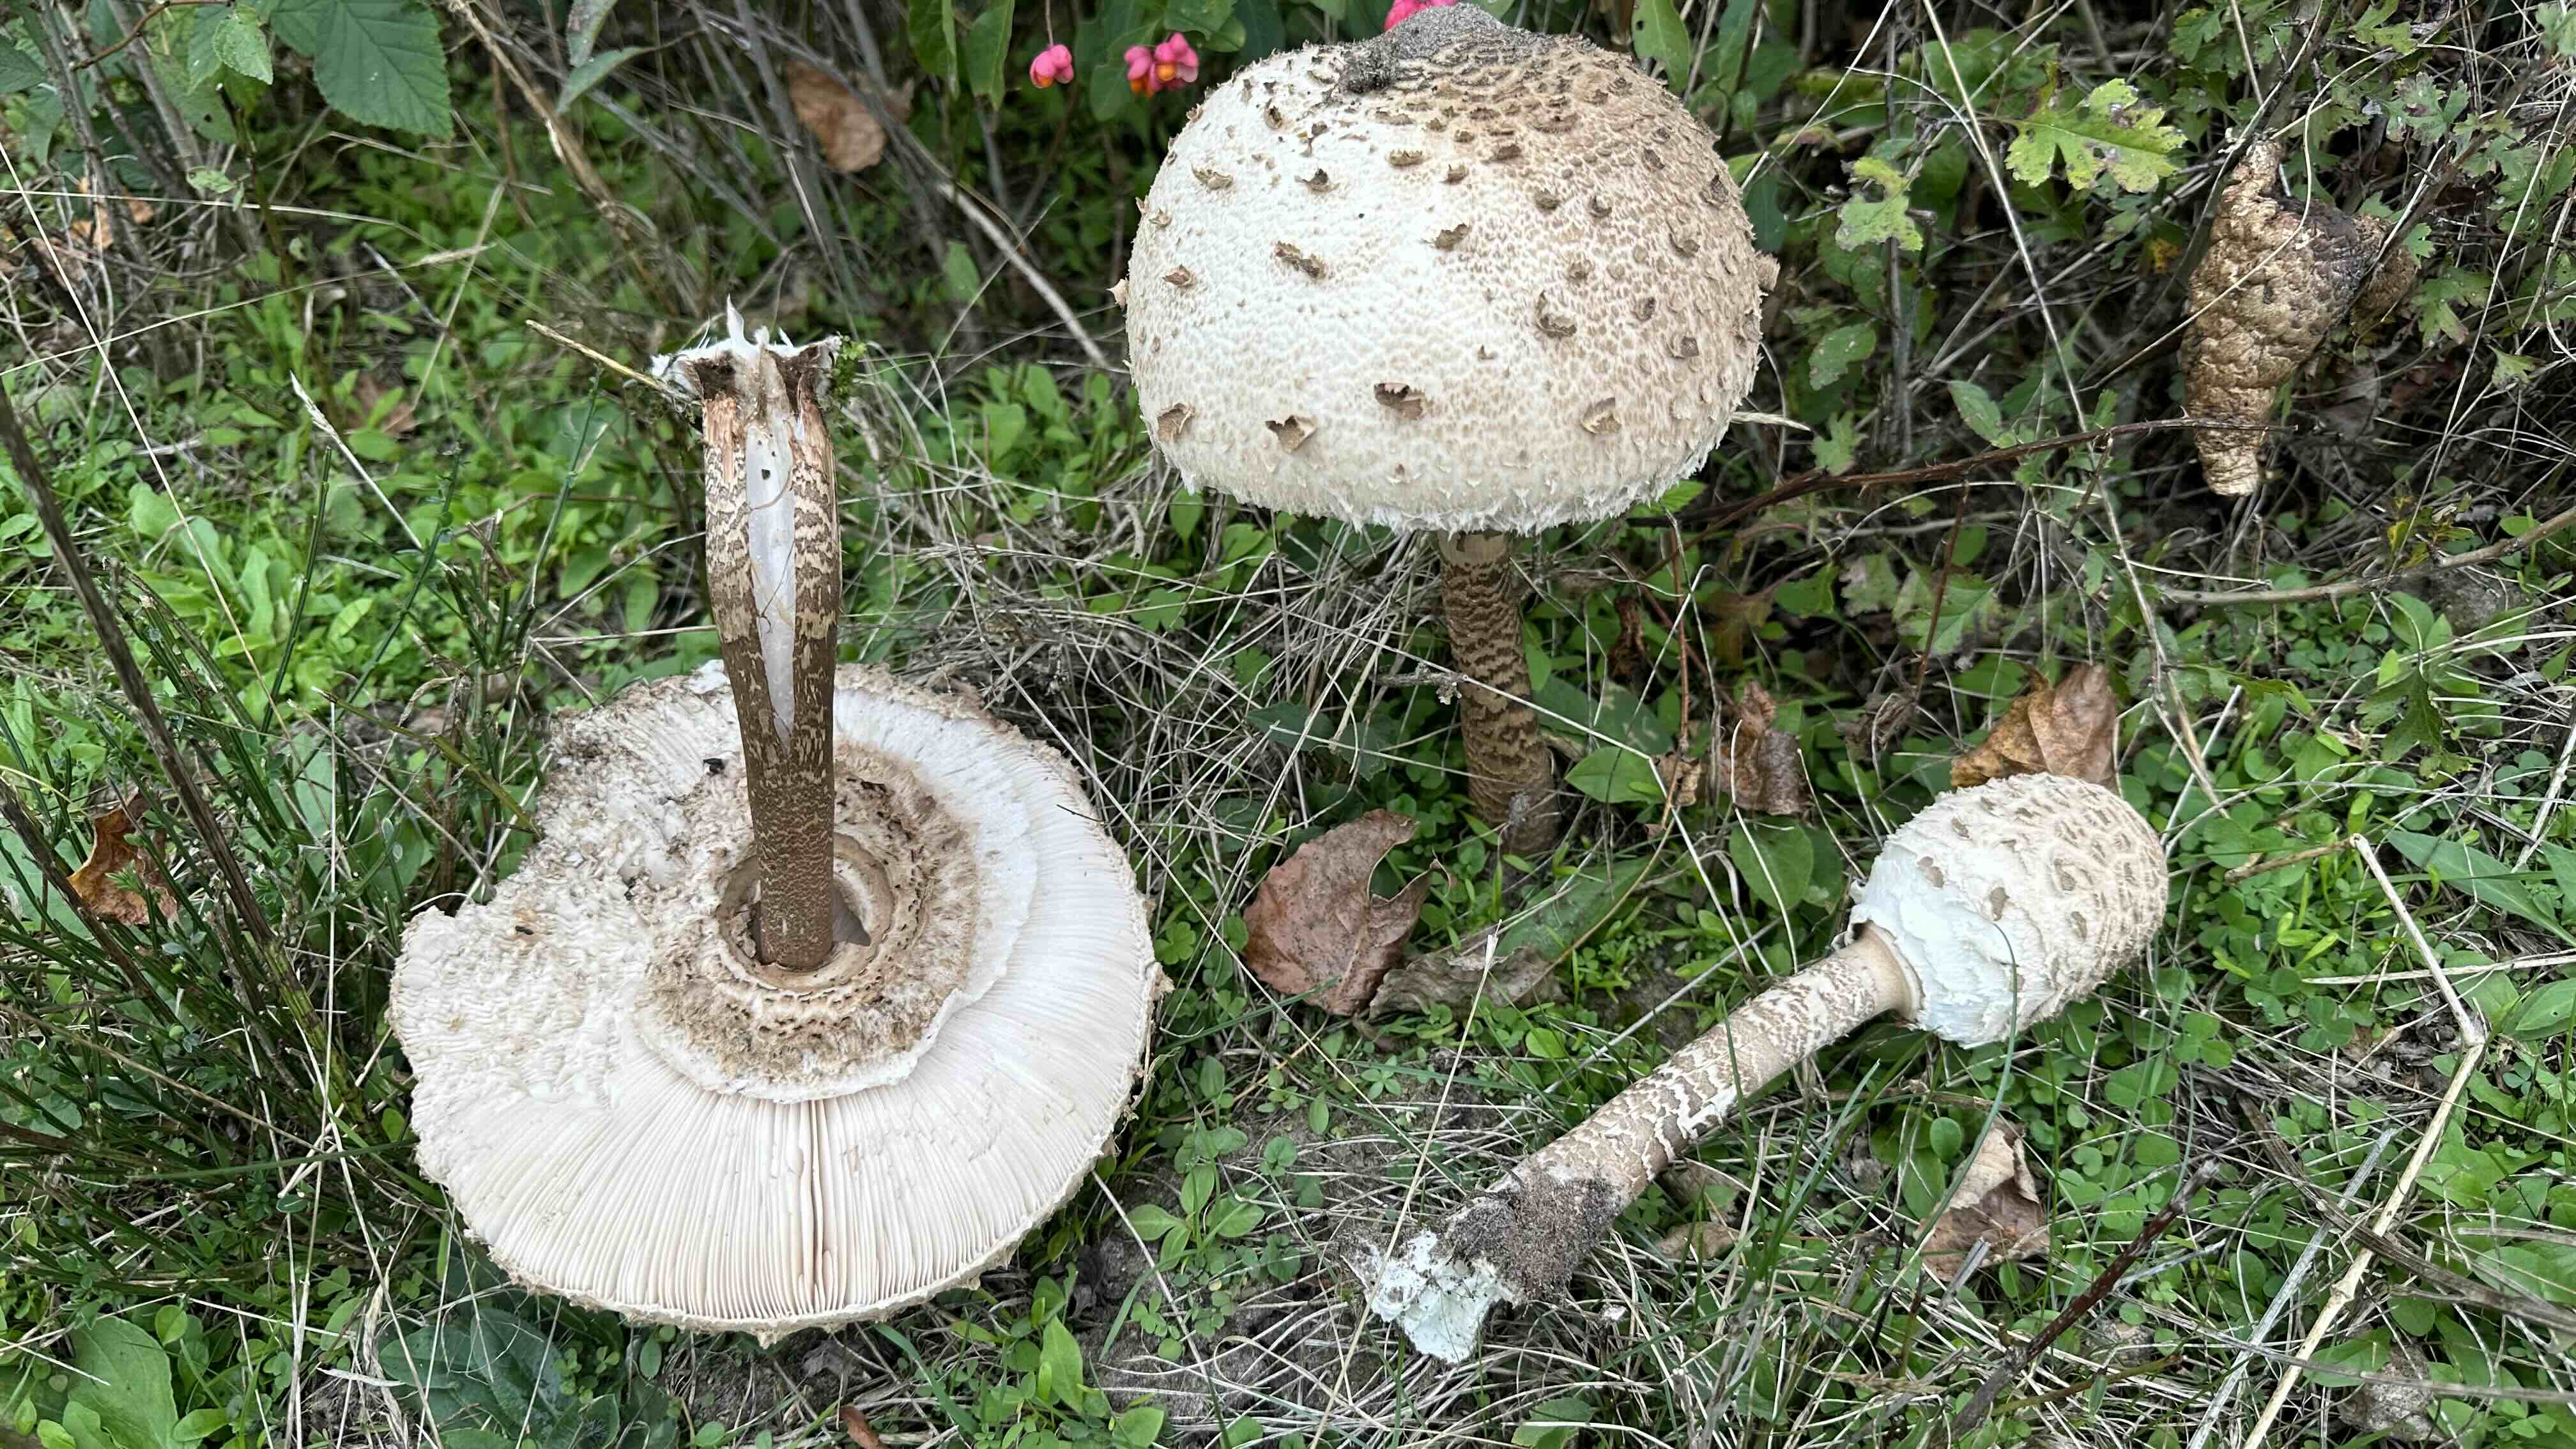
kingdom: Fungi
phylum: Basidiomycota
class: Agaricomycetes
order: Agaricales
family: Agaricaceae
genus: Macrolepiota
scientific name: Macrolepiota procera
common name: stor kæmpeparasolhat
